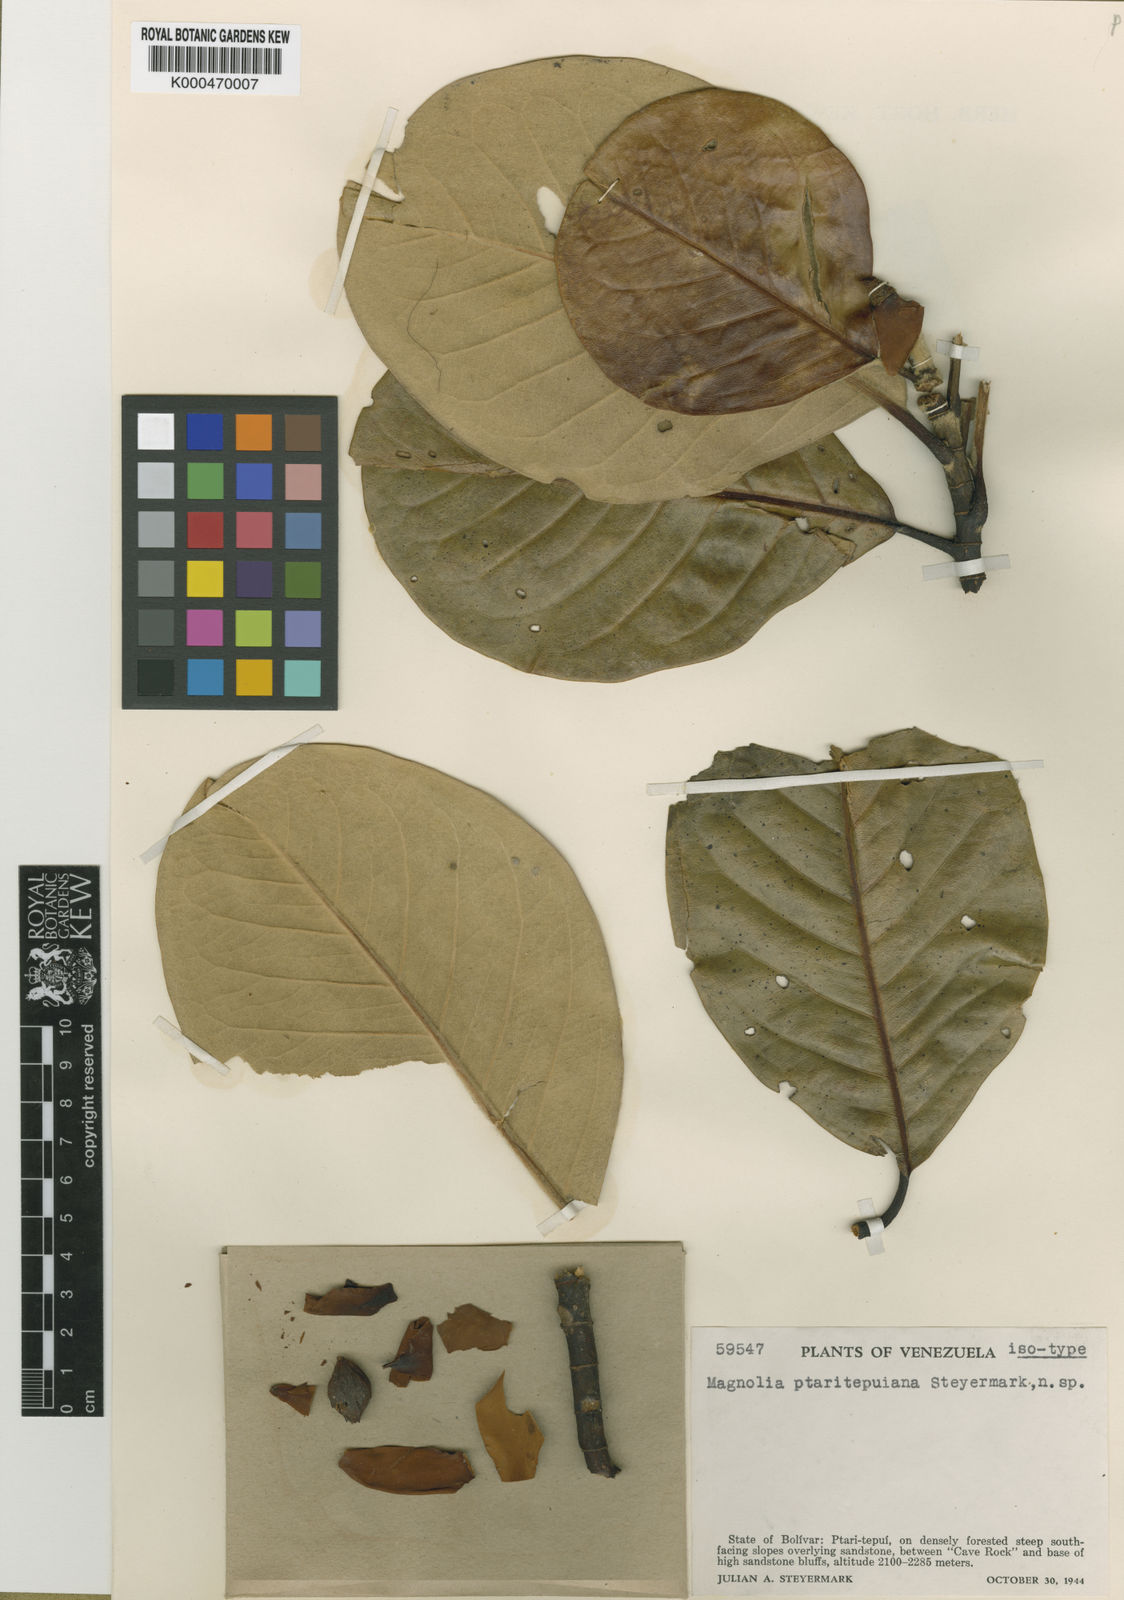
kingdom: Plantae
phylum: Tracheophyta
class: Magnoliopsida
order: Magnoliales
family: Magnoliaceae
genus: Magnolia
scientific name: Magnolia ptaritepuiana
